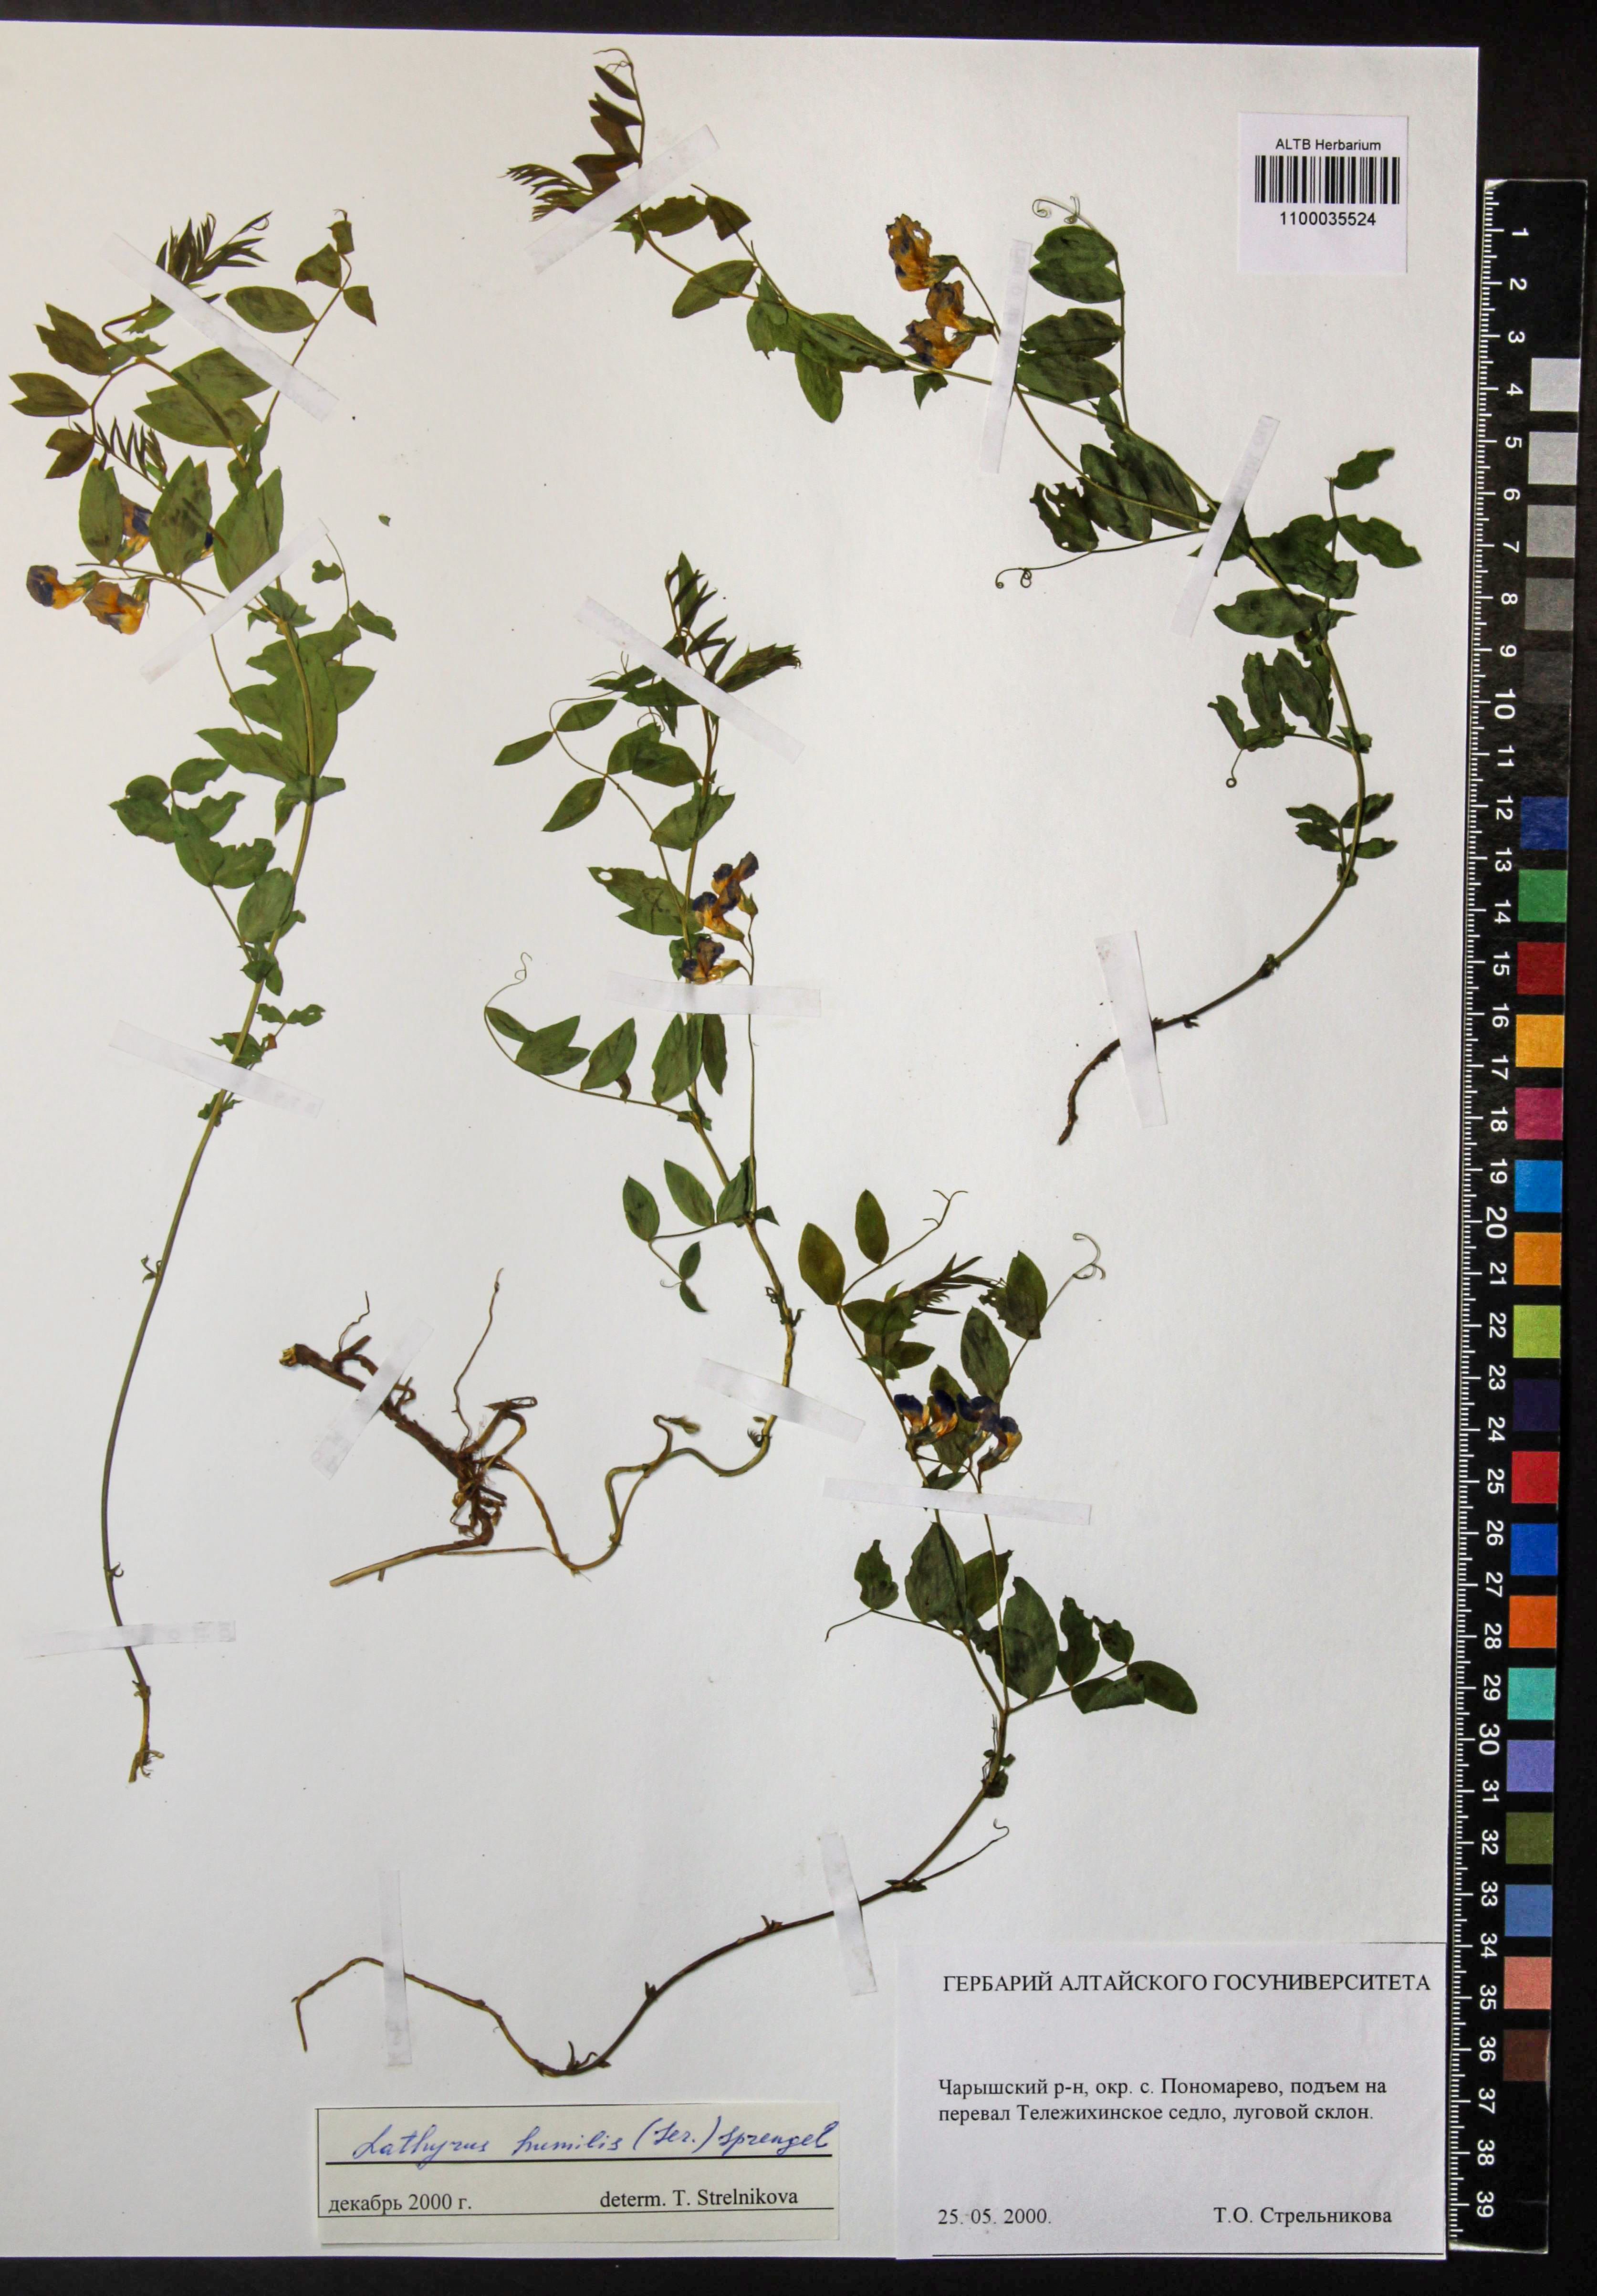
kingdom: Plantae
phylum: Tracheophyta
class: Magnoliopsida
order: Fabales
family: Fabaceae
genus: Lathyrus
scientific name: Lathyrus humilis
